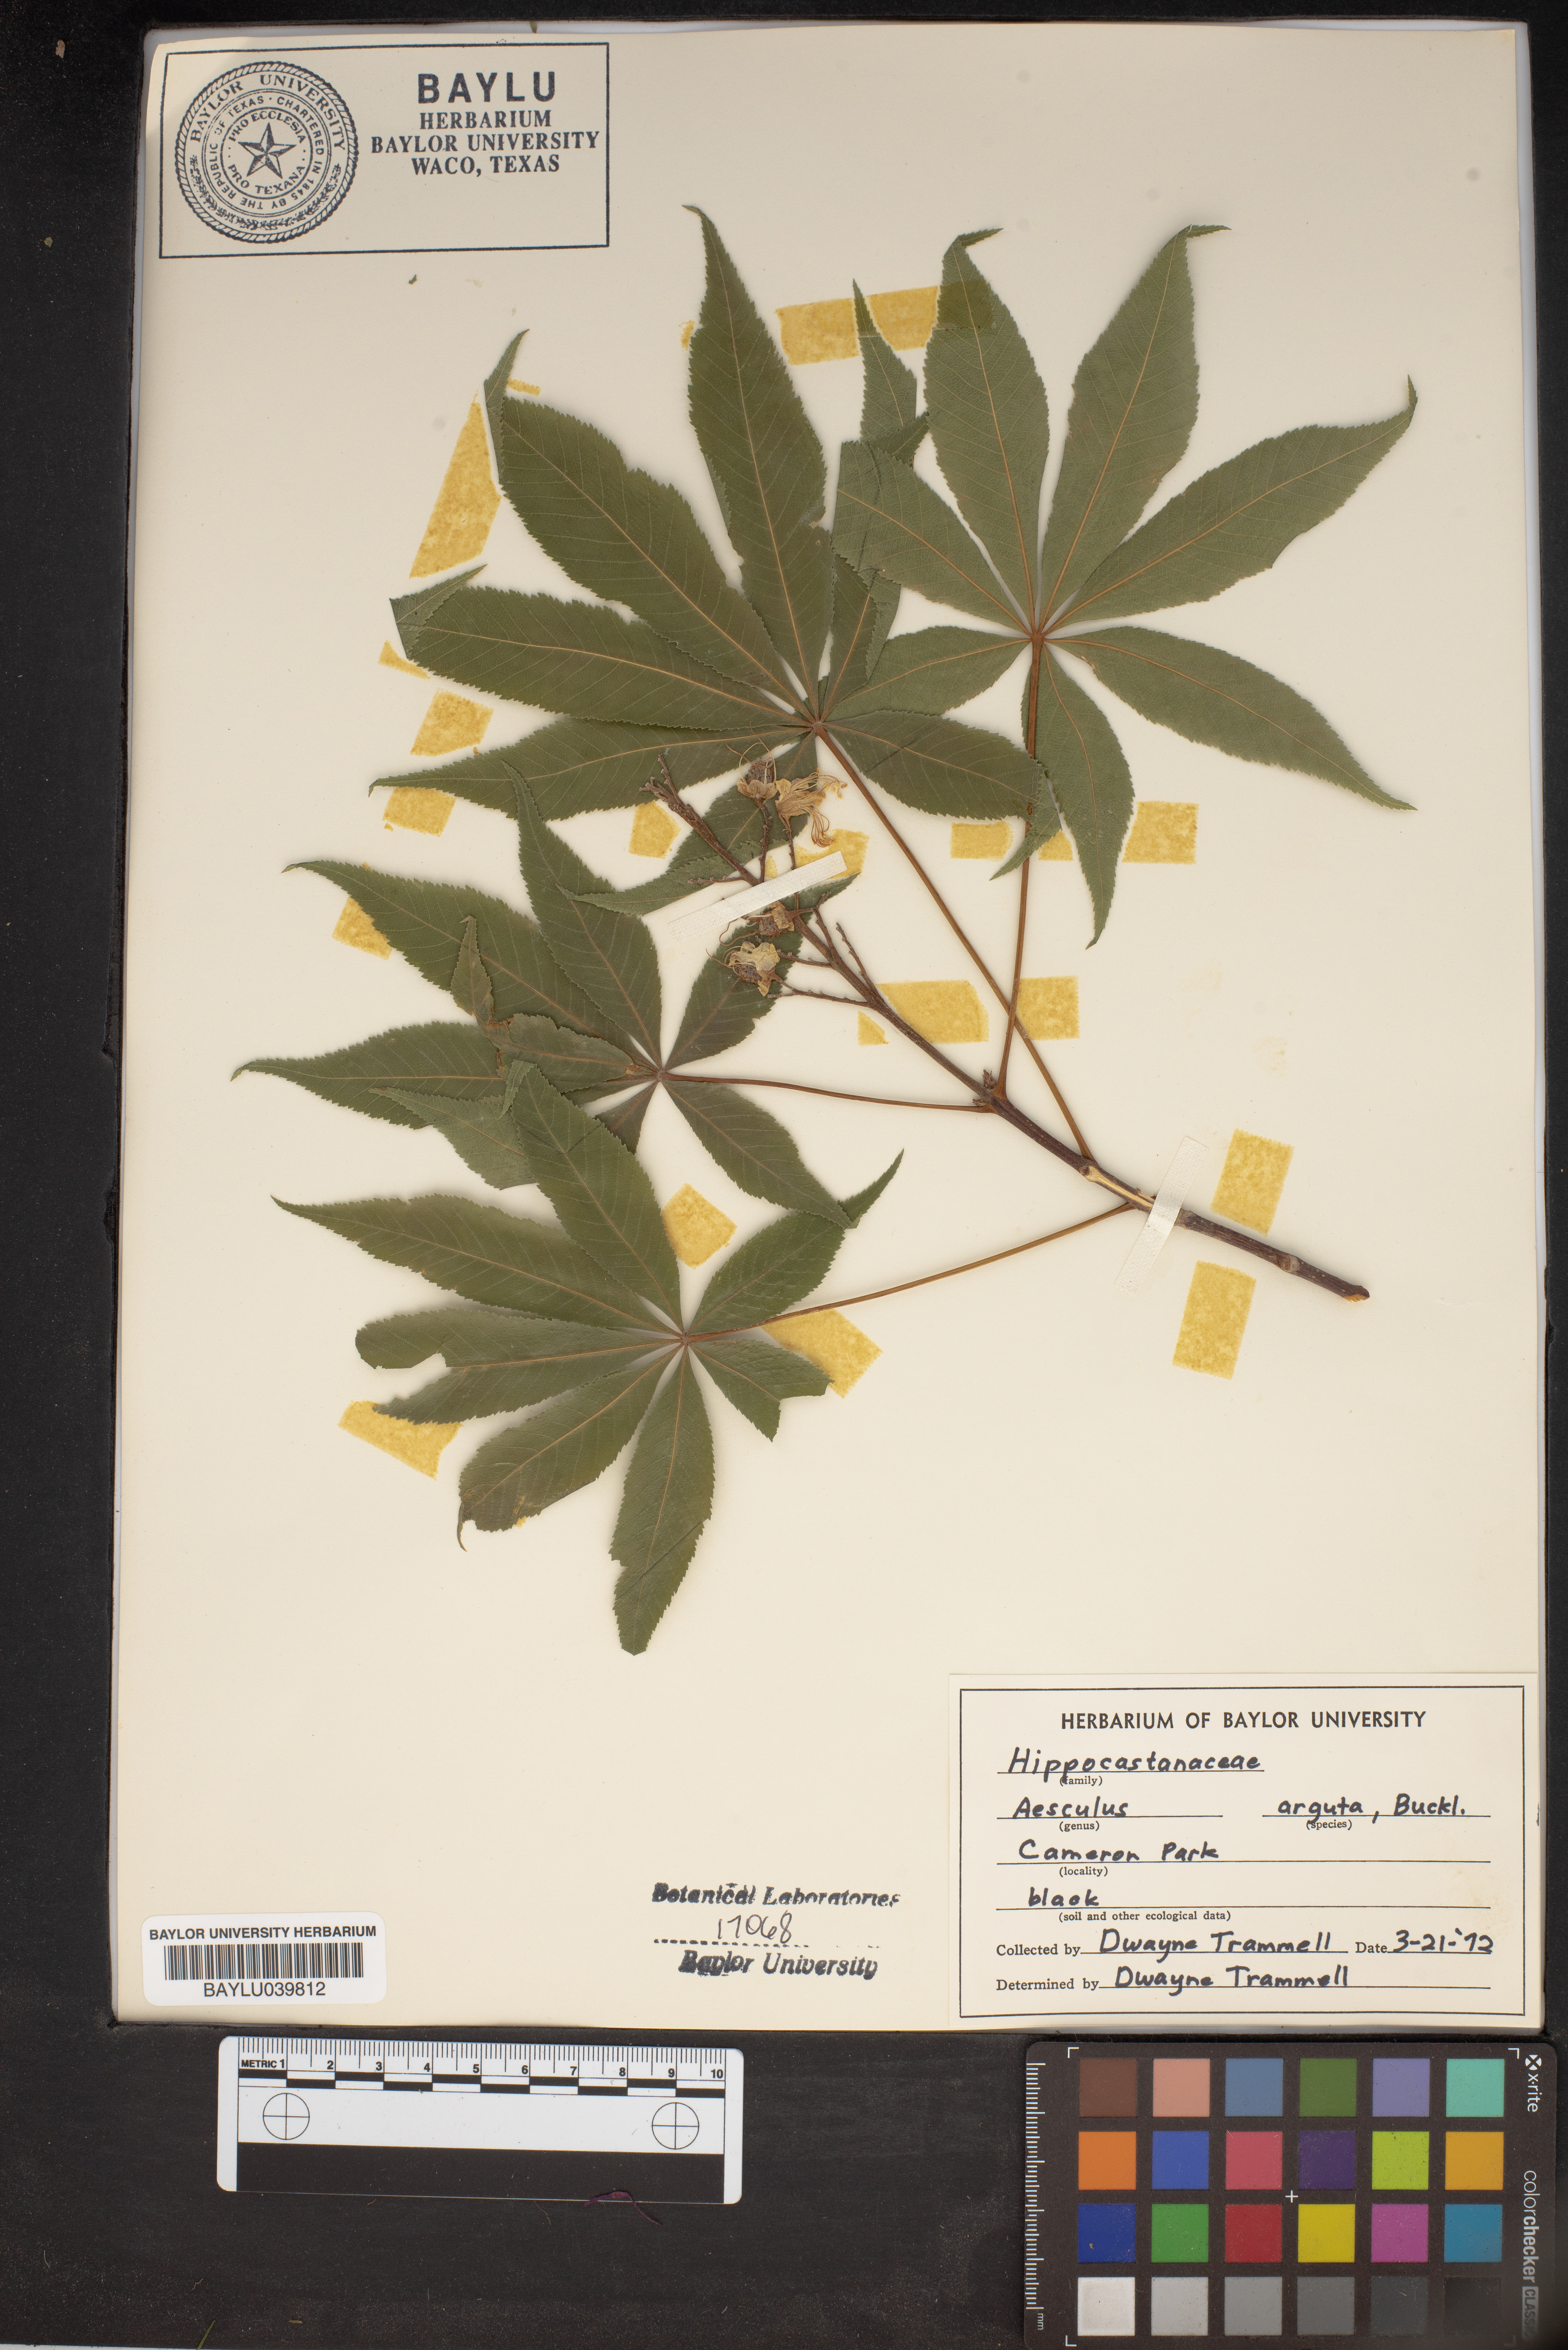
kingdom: Plantae
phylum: Tracheophyta
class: Magnoliopsida
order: Sapindales
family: Sapindaceae
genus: Aesculus
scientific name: Aesculus glabra
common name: Ohio buckeye
